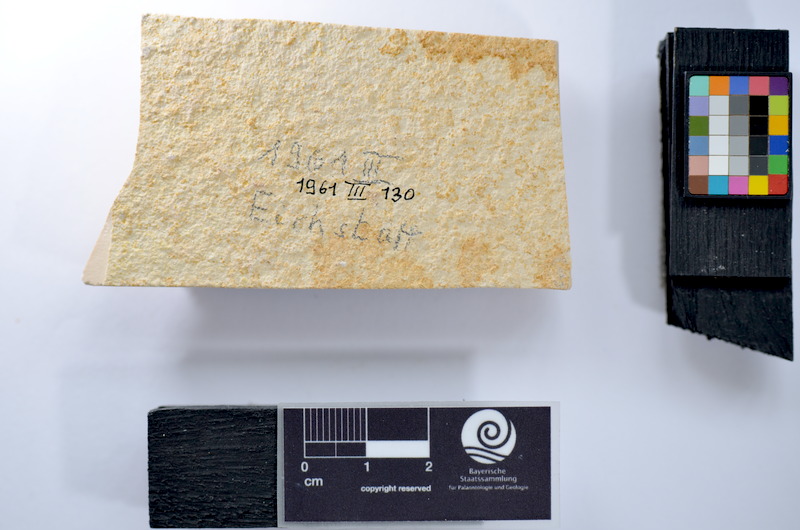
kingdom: Animalia
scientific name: Animalia
